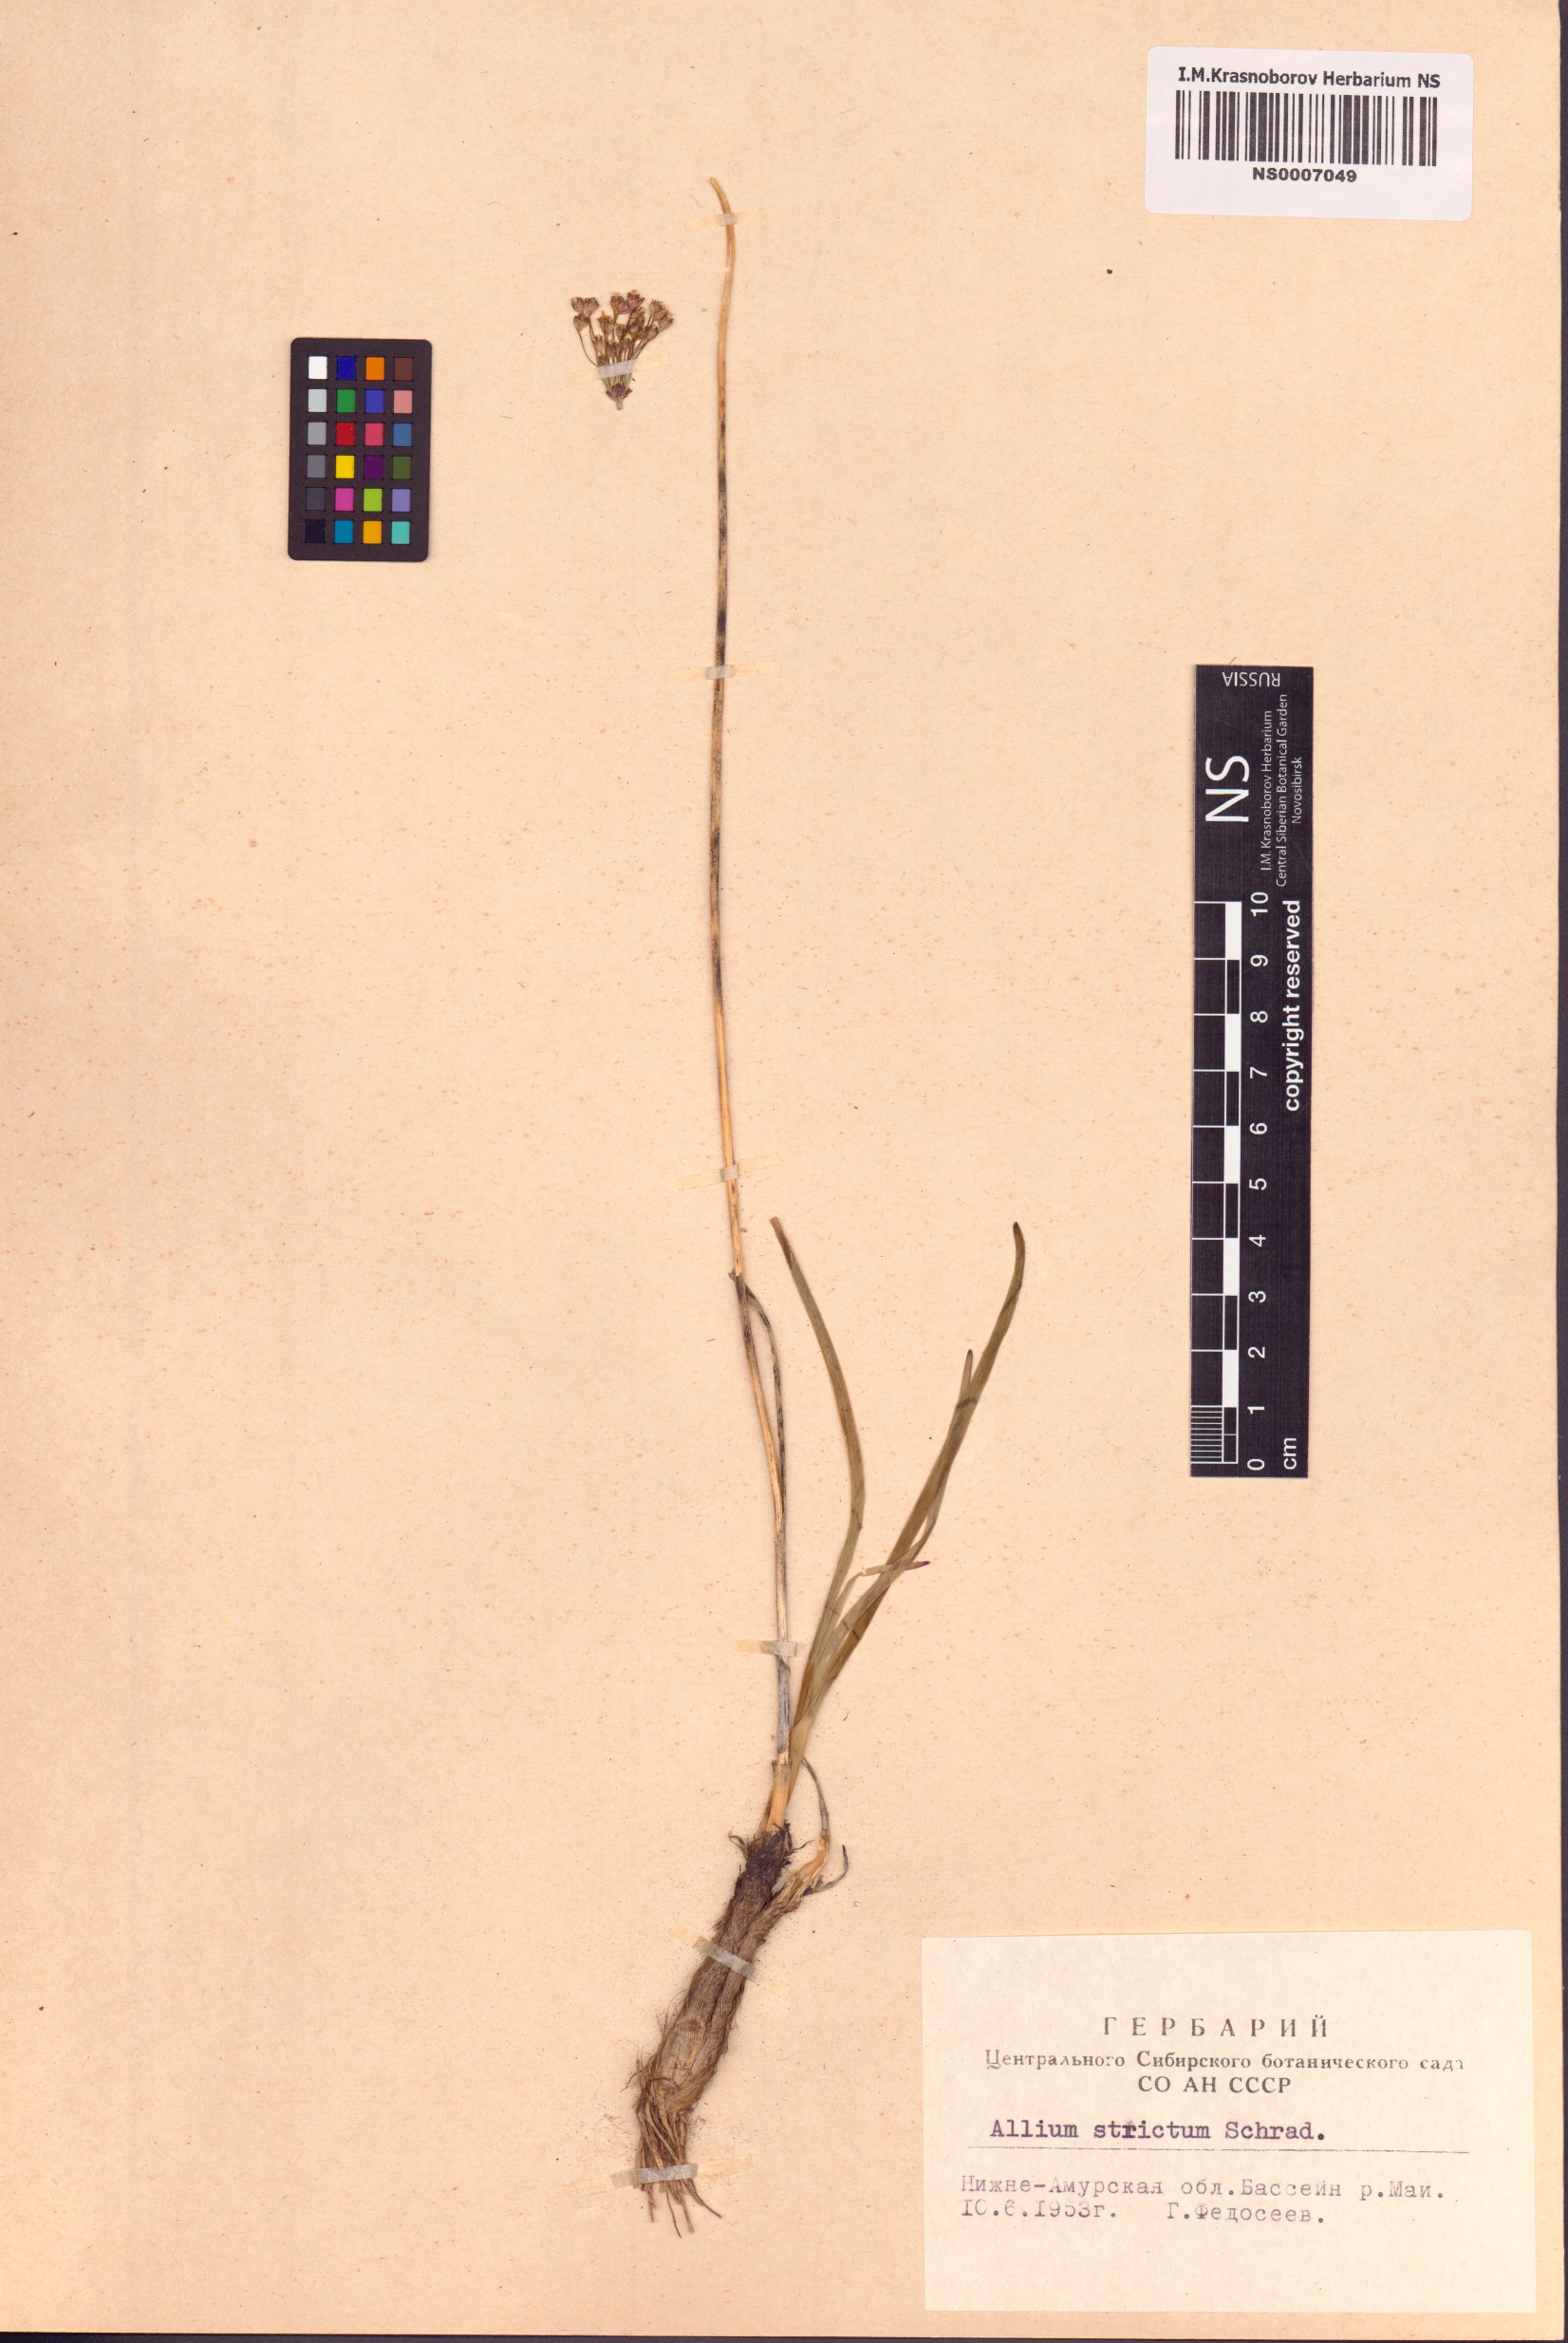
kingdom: Plantae
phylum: Tracheophyta
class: Liliopsida
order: Asparagales
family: Amaryllidaceae
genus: Allium
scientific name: Allium strictum
